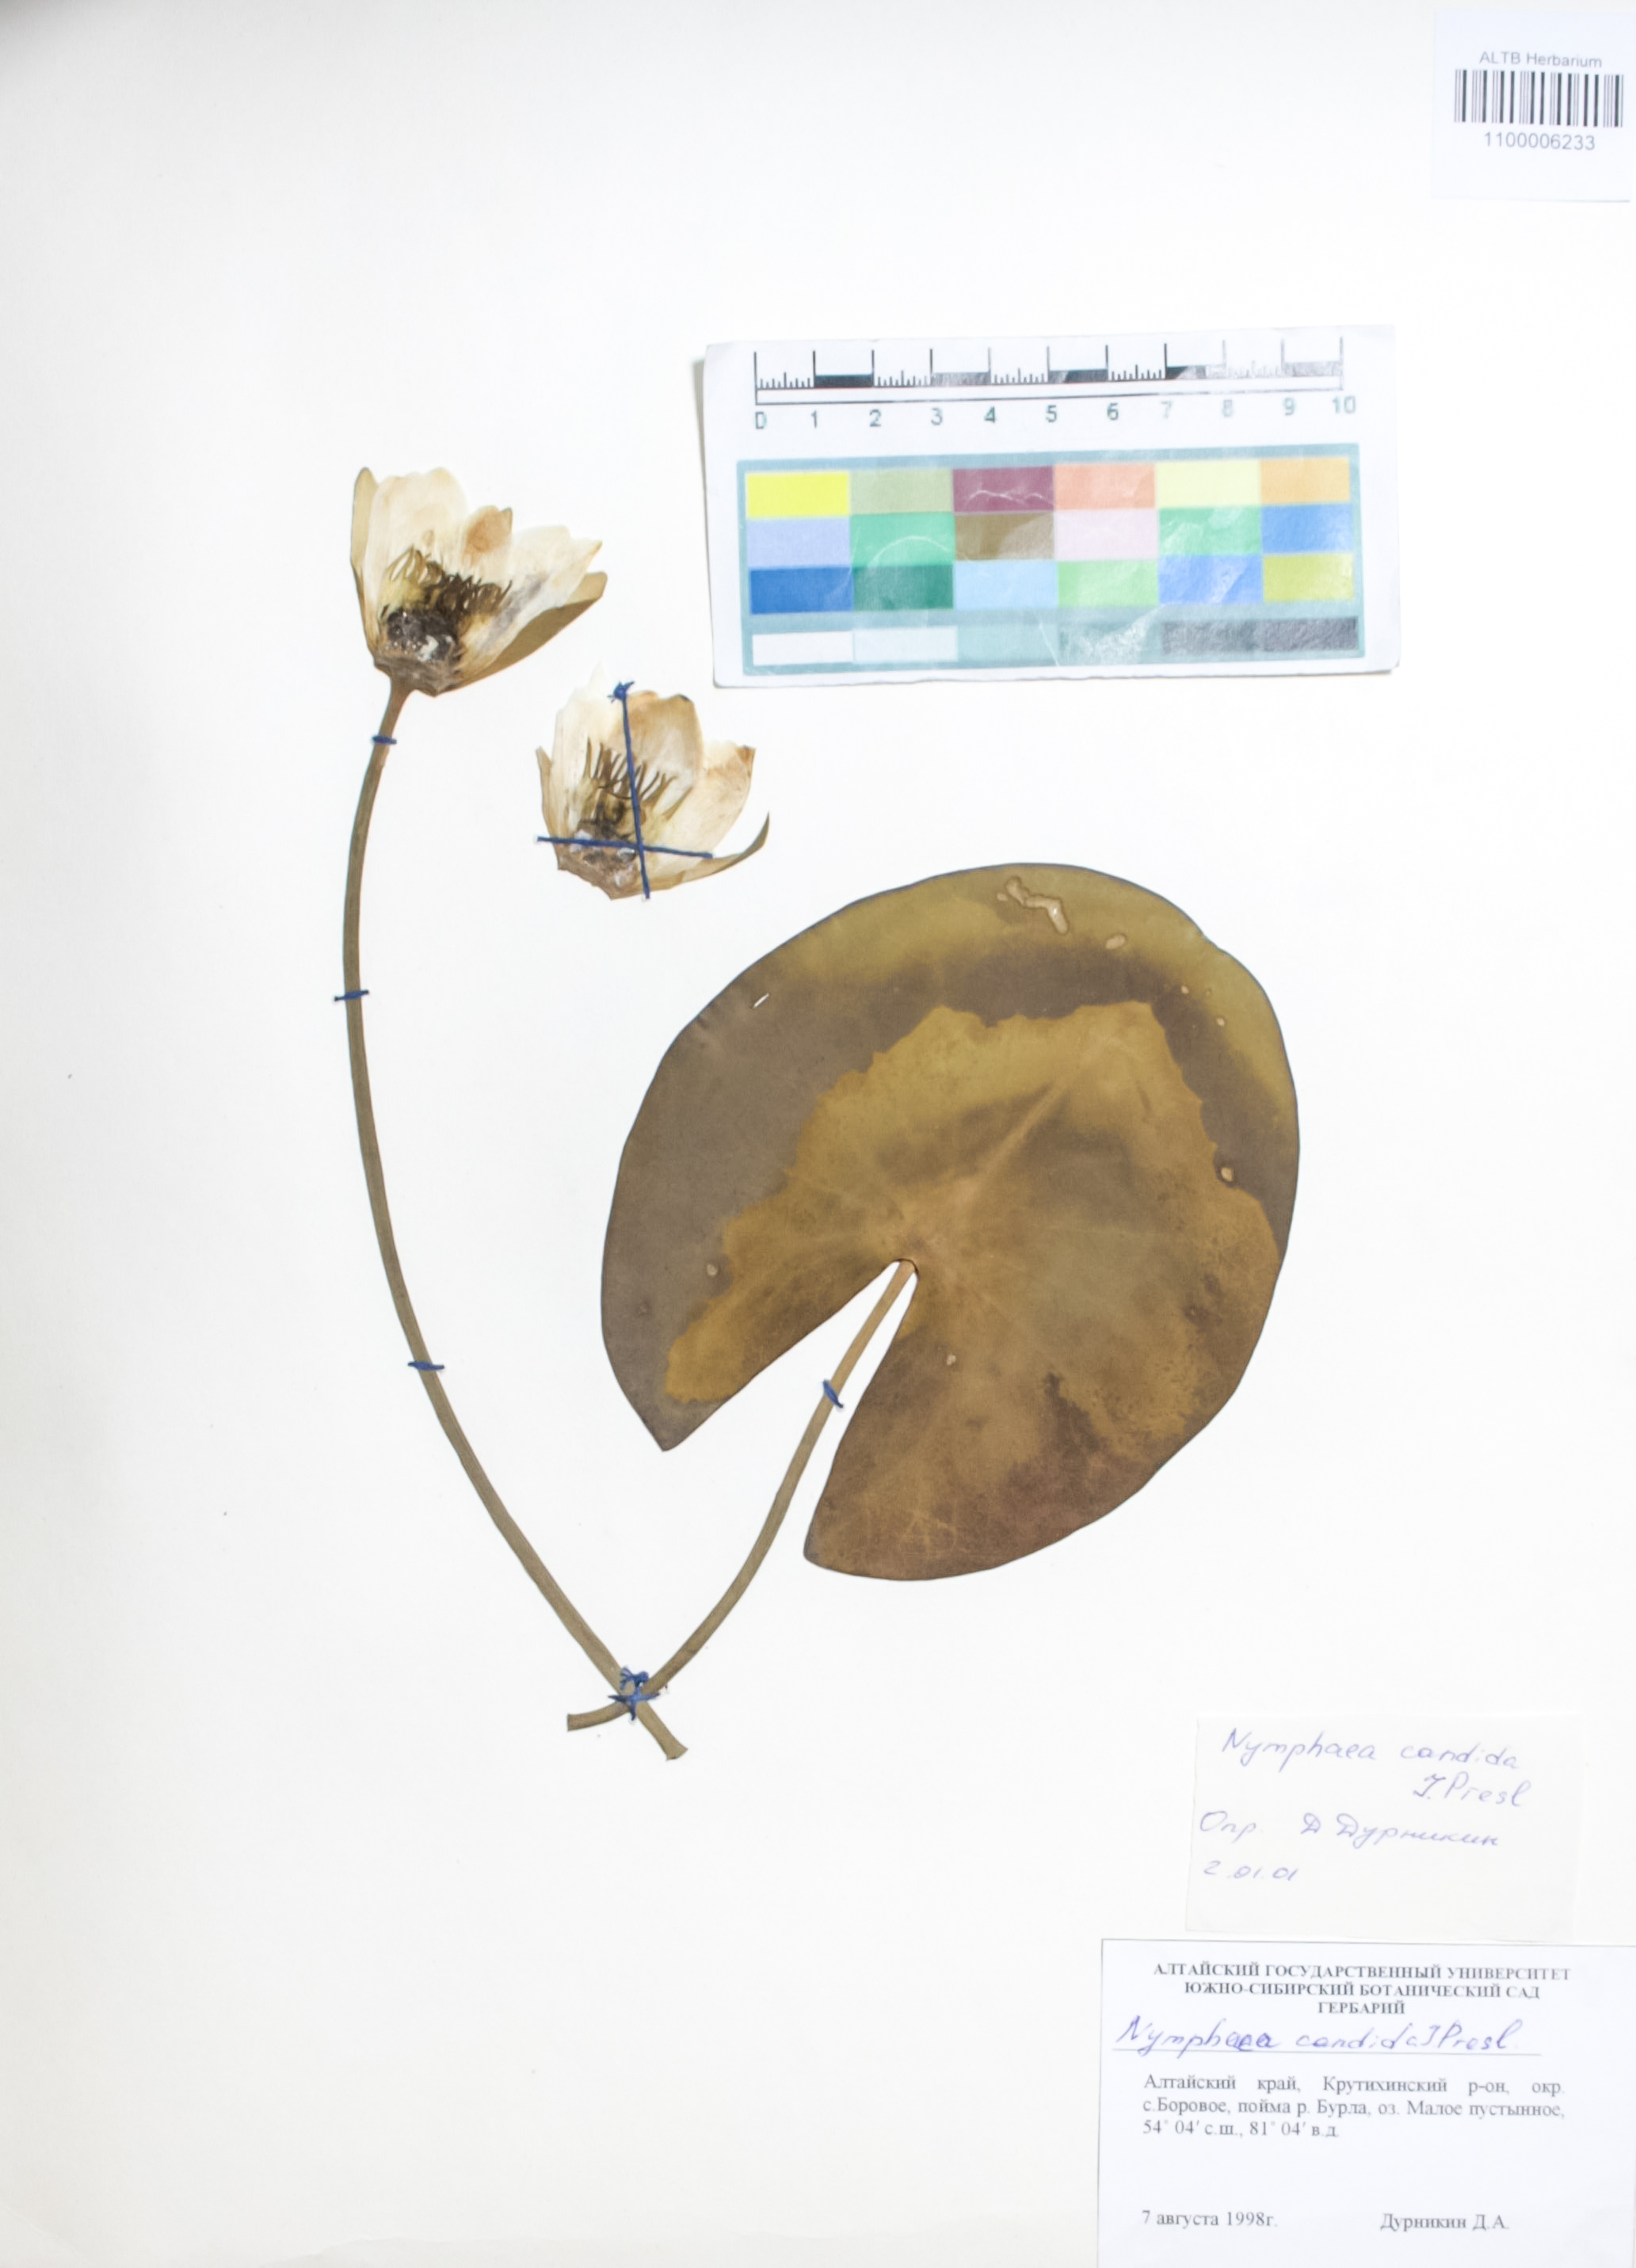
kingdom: Plantae
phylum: Tracheophyta
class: Magnoliopsida
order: Nymphaeales
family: Nymphaeaceae
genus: Nymphaea
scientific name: Nymphaea candida
